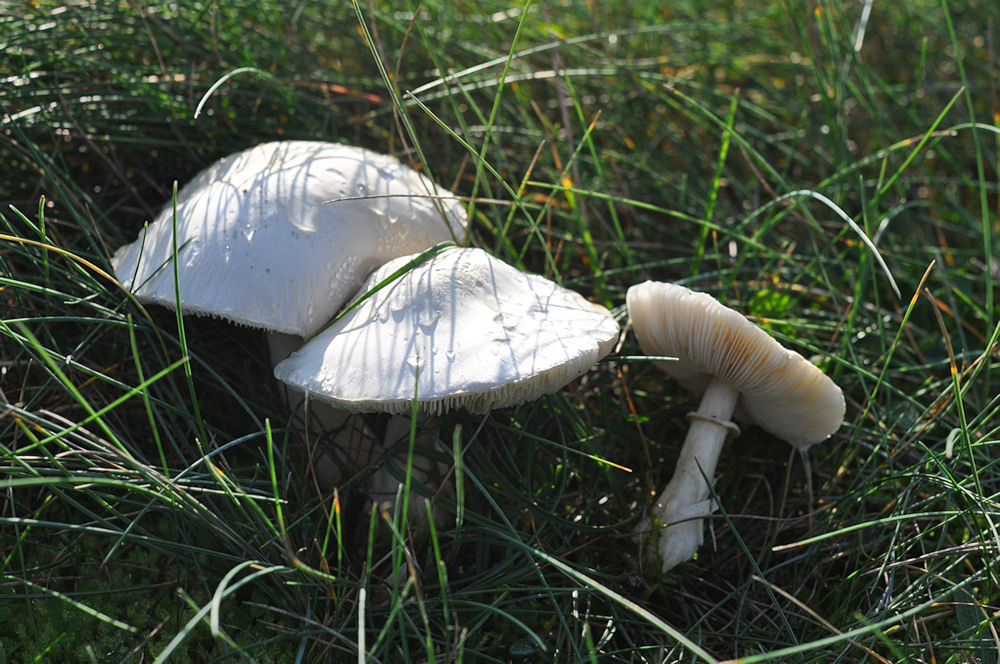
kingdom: Fungi
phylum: Basidiomycota
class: Agaricomycetes
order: Agaricales
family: Agaricaceae
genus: Leucoagaricus
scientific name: Leucoagaricus leucothites
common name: rosabladet silkehat
